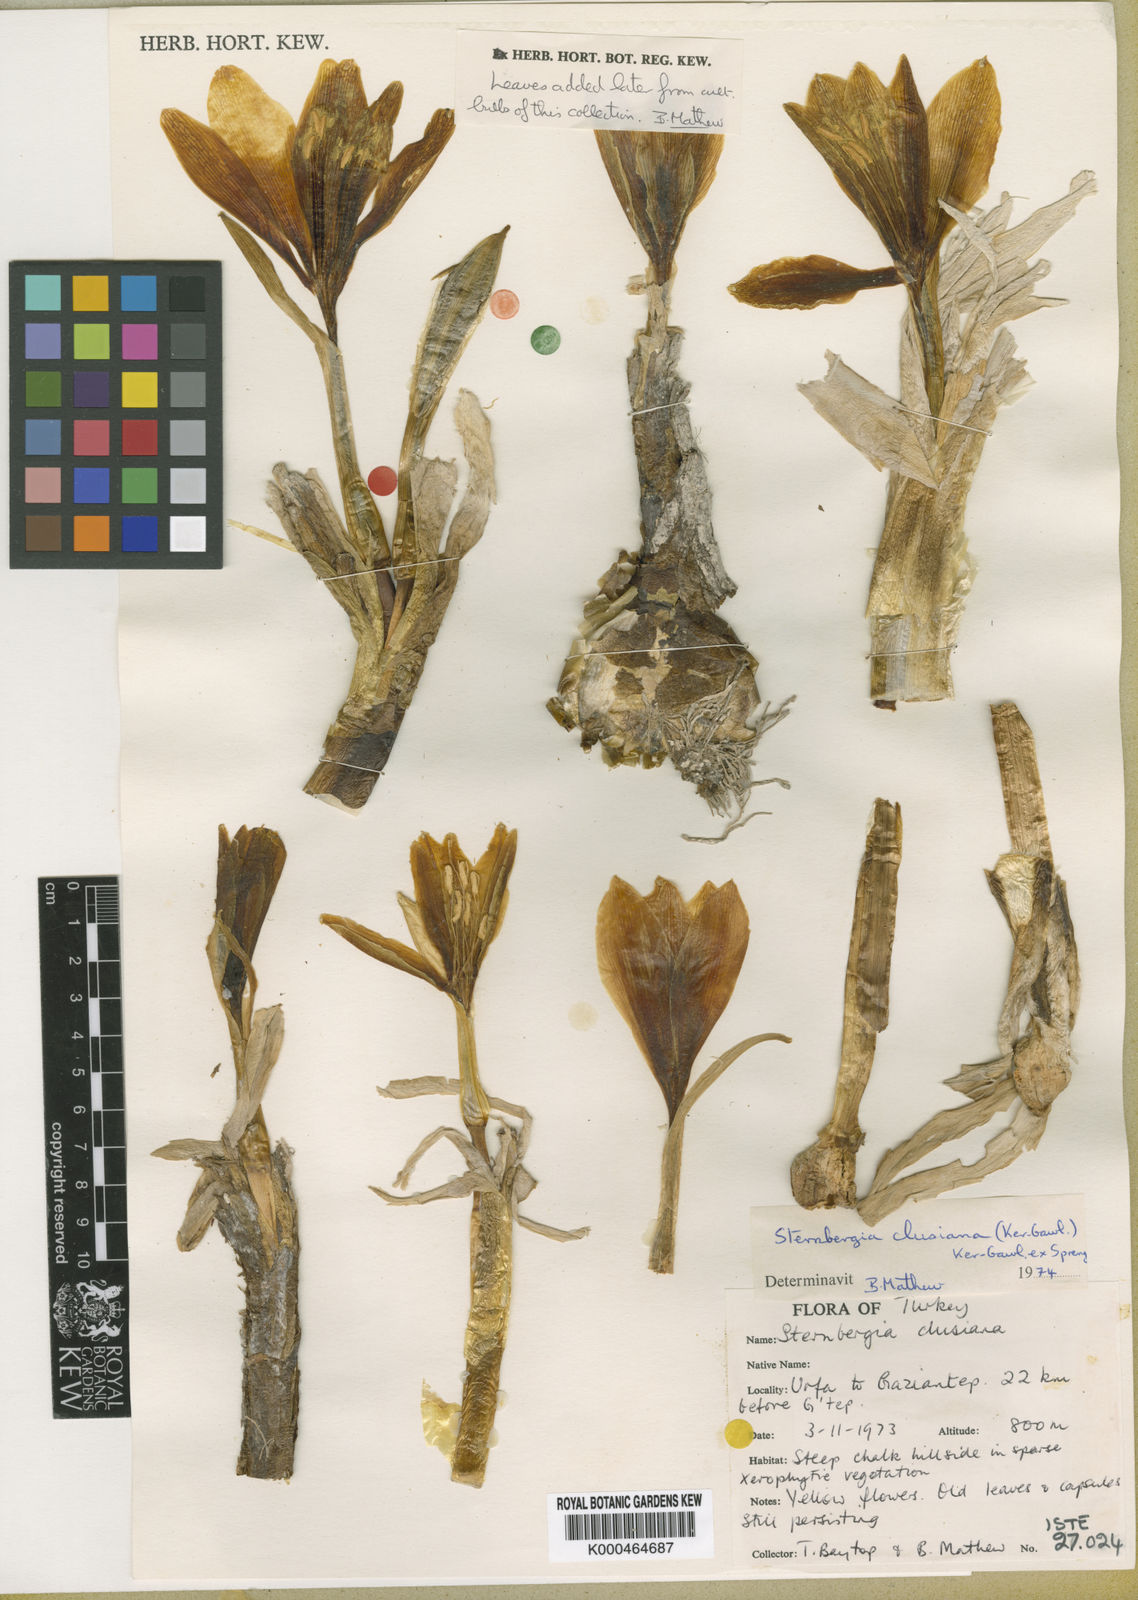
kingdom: Plantae
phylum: Tracheophyta
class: Liliopsida
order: Asparagales
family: Amaryllidaceae
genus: Sternbergia
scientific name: Sternbergia
